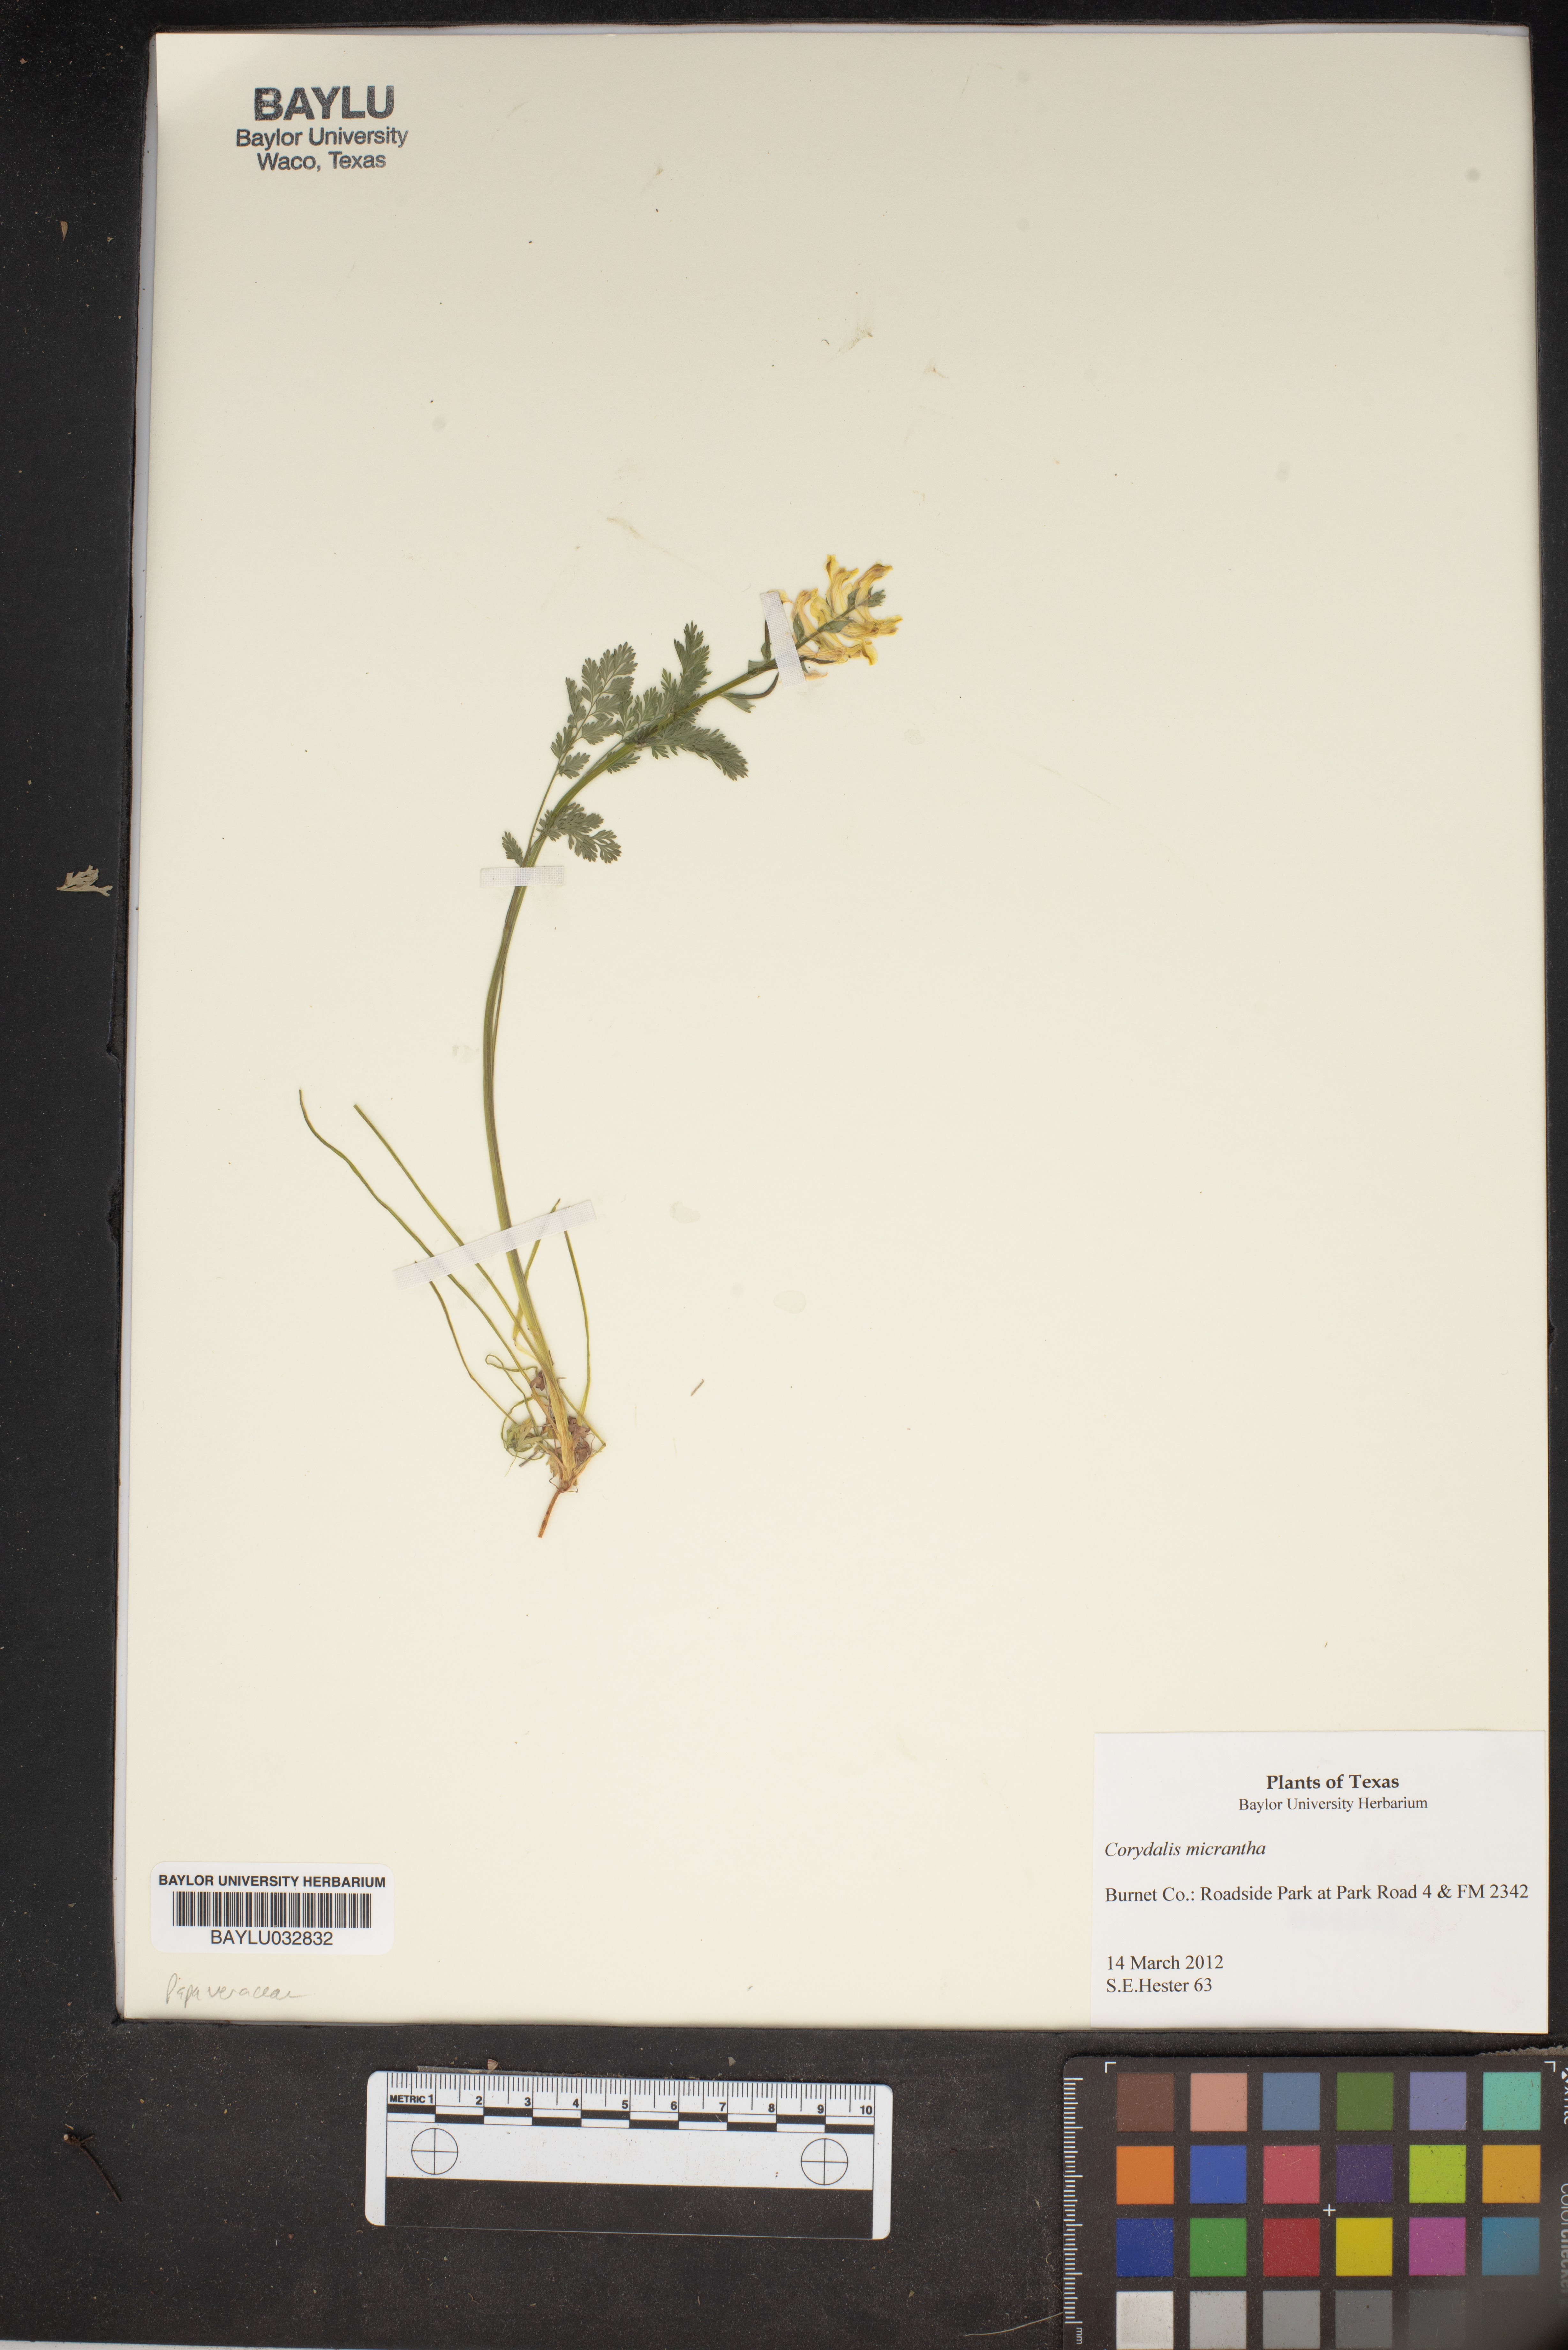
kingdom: Plantae
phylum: Tracheophyta
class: Magnoliopsida
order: Ranunculales
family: Papaveraceae
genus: Corydalis
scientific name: Corydalis micrantha
